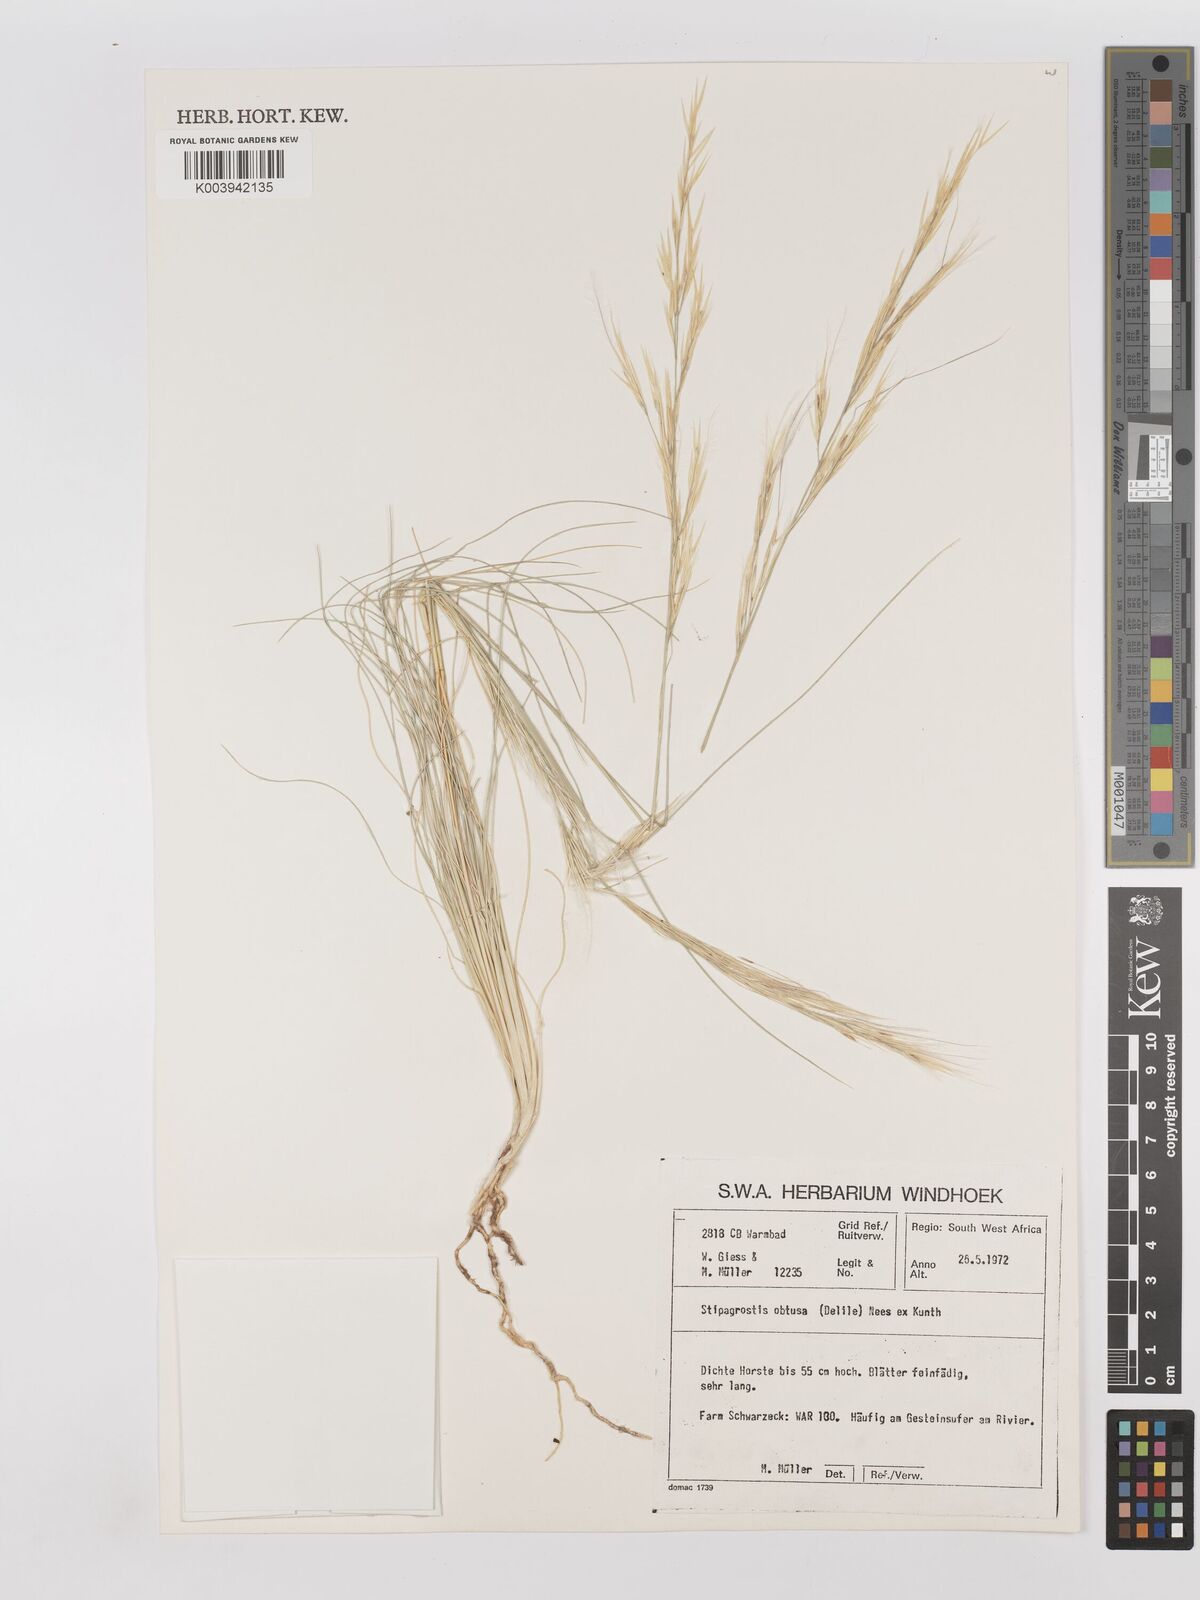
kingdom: Plantae
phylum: Tracheophyta
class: Liliopsida
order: Poales
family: Poaceae
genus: Stipagrostis
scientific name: Stipagrostis obtusa
